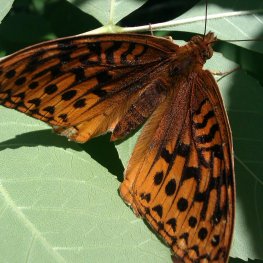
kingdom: Animalia
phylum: Arthropoda
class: Insecta
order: Lepidoptera
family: Nymphalidae
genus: Speyeria
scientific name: Speyeria cybele
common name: Great Spangled Fritillary
